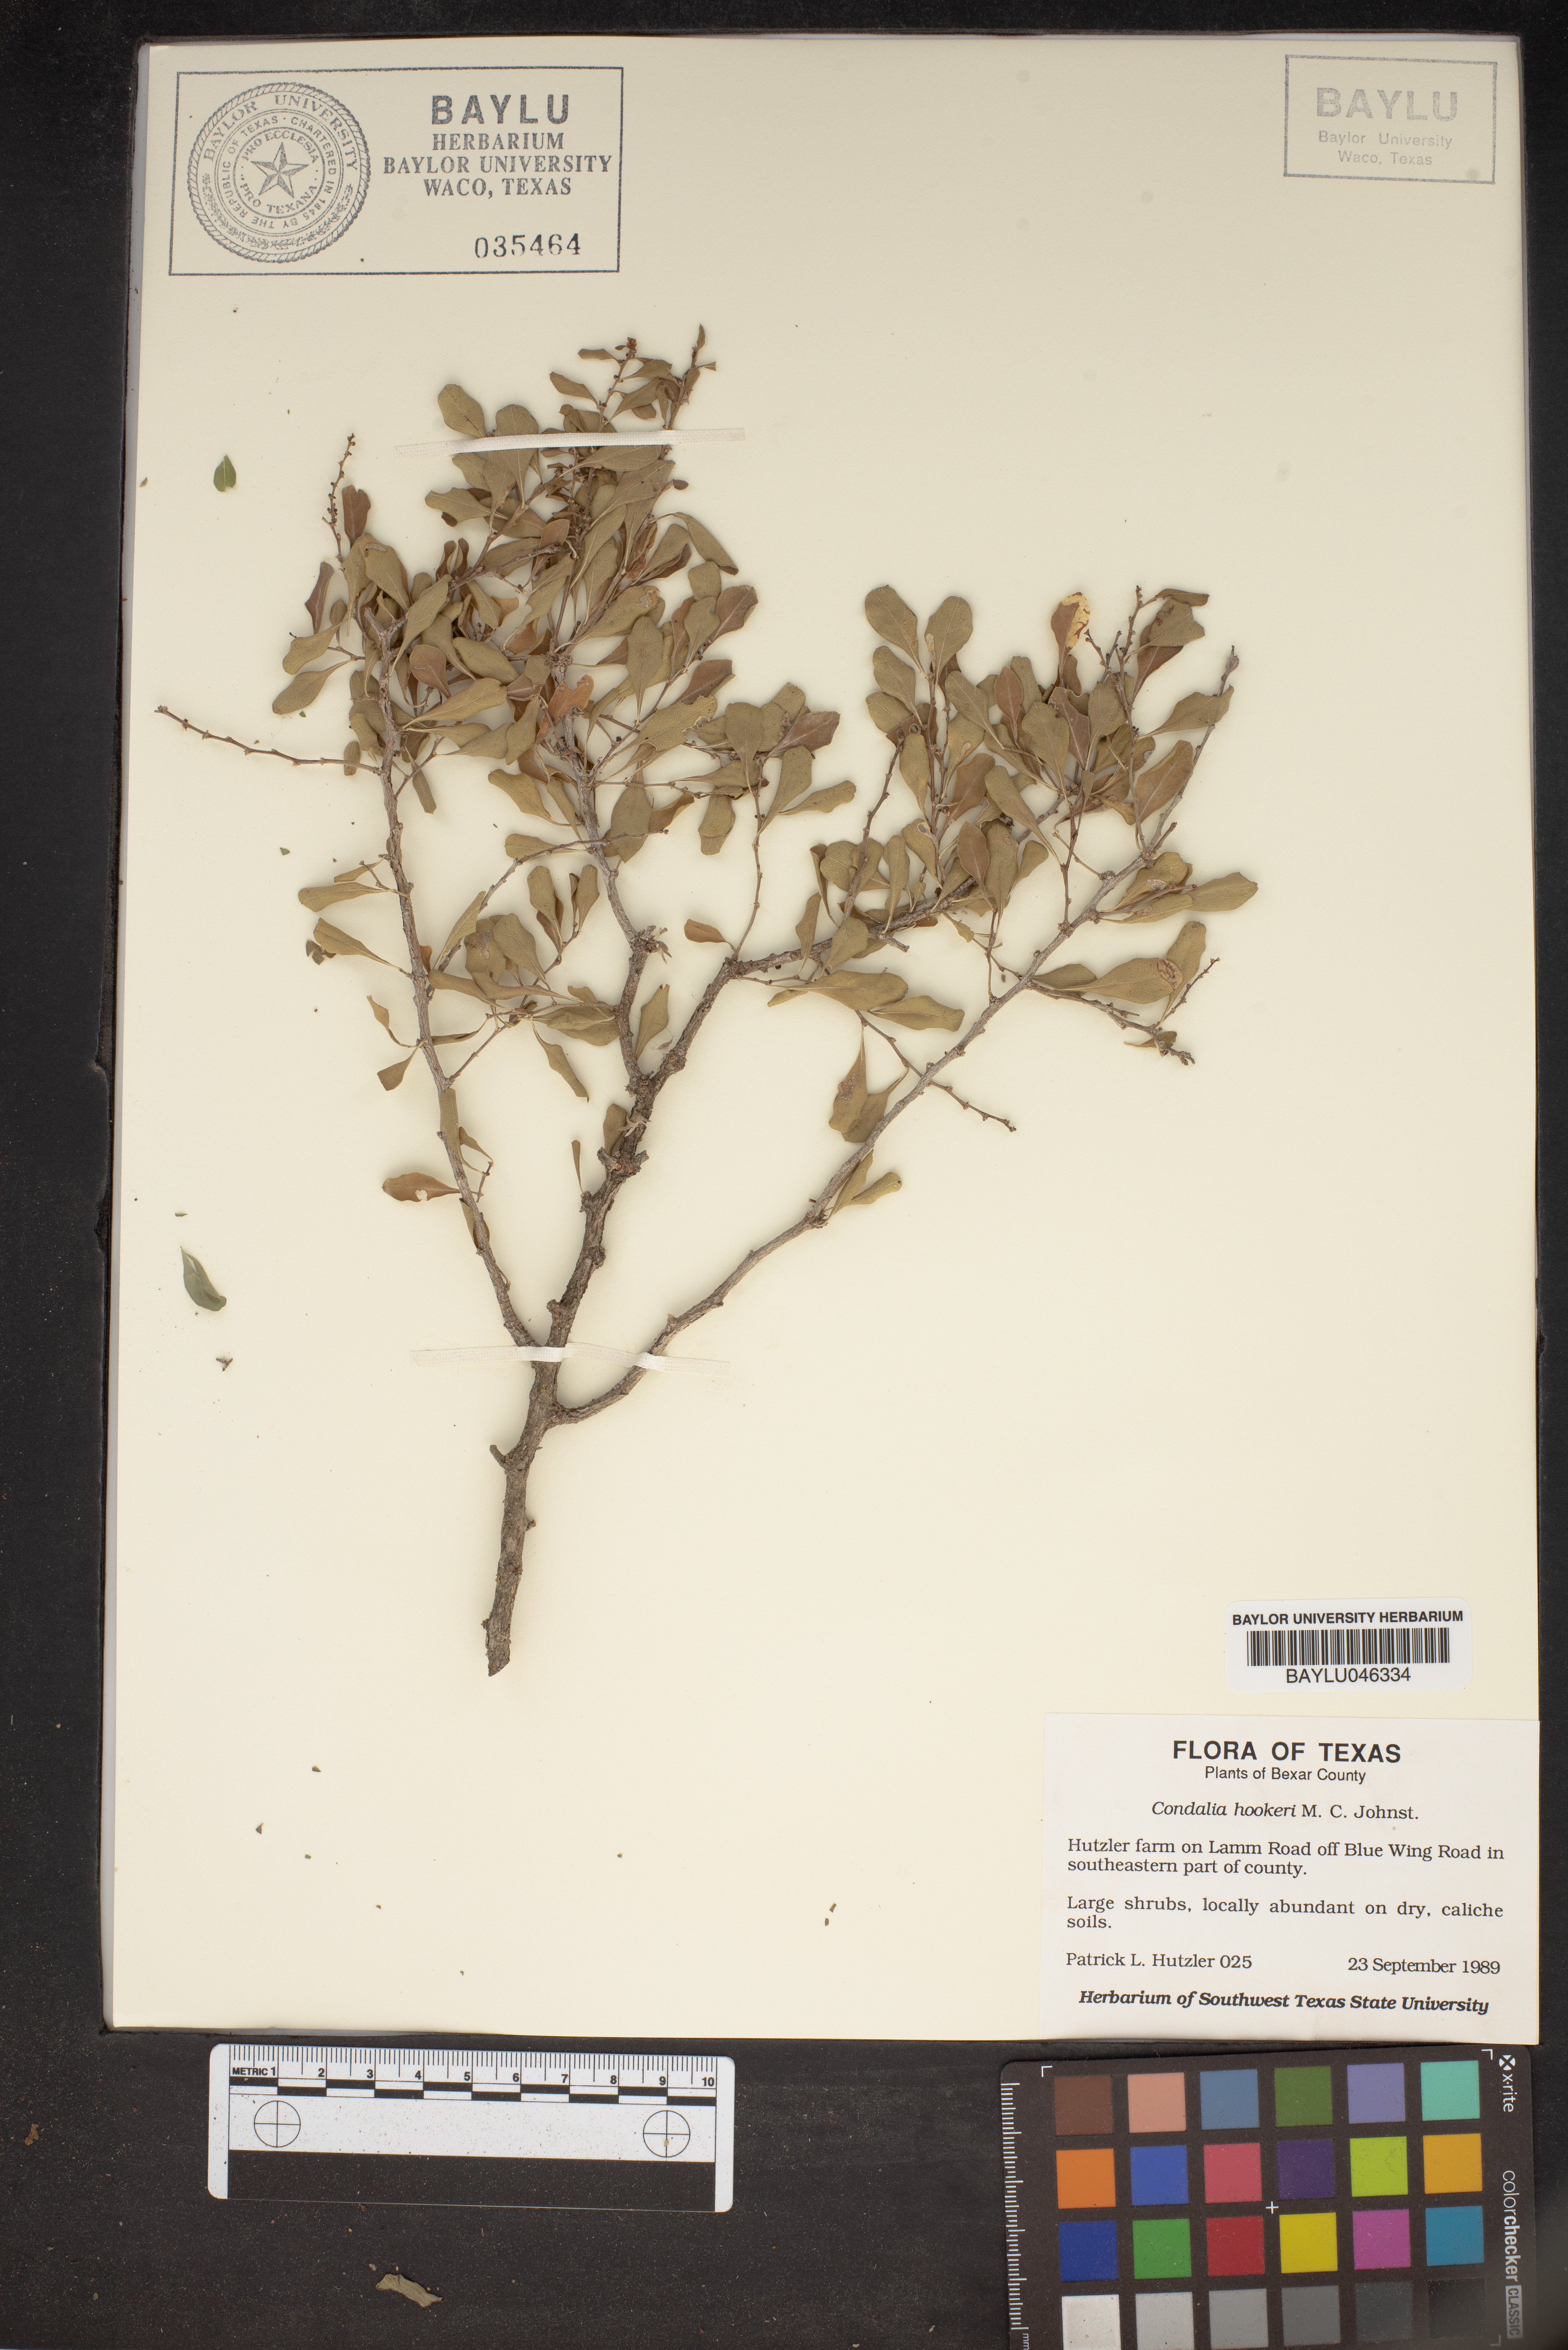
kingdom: Plantae
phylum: Tracheophyta
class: Magnoliopsida
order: Rosales
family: Rhamnaceae
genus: Condalia
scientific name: Condalia hookeri
